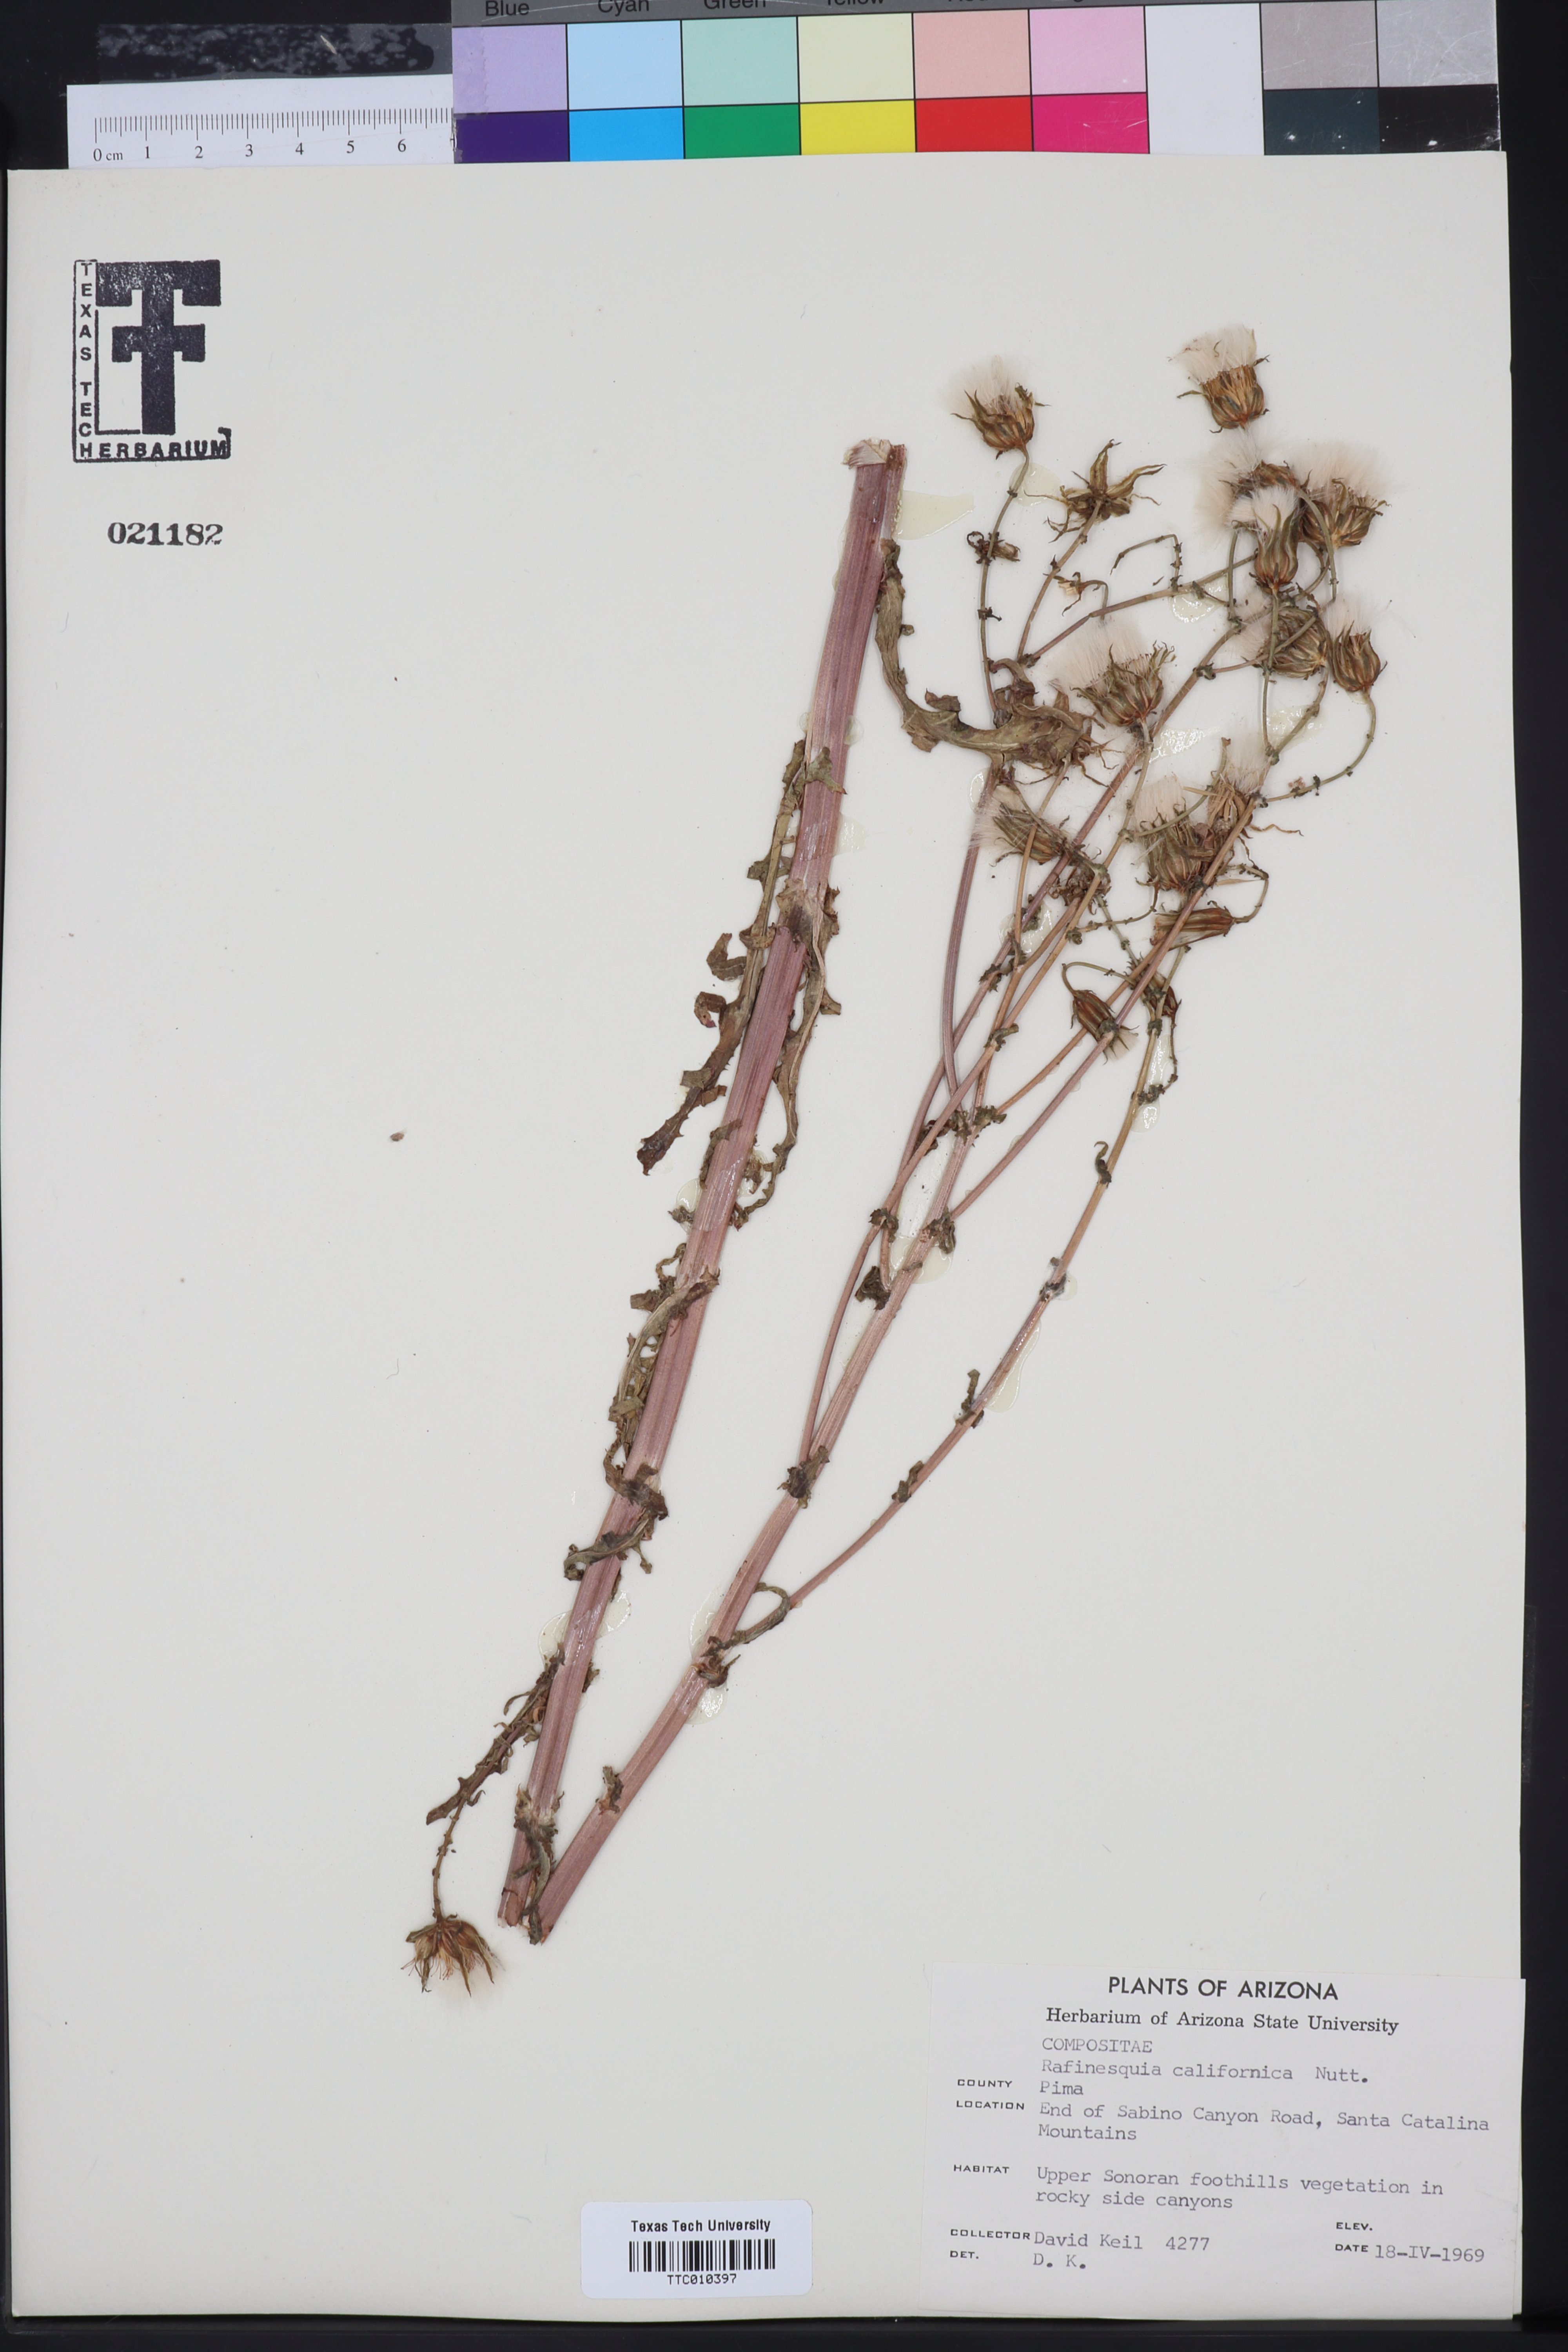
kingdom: Plantae
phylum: Tracheophyta
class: Magnoliopsida
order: Asterales
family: Asteraceae
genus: Rafinesquia
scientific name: Rafinesquia californica
